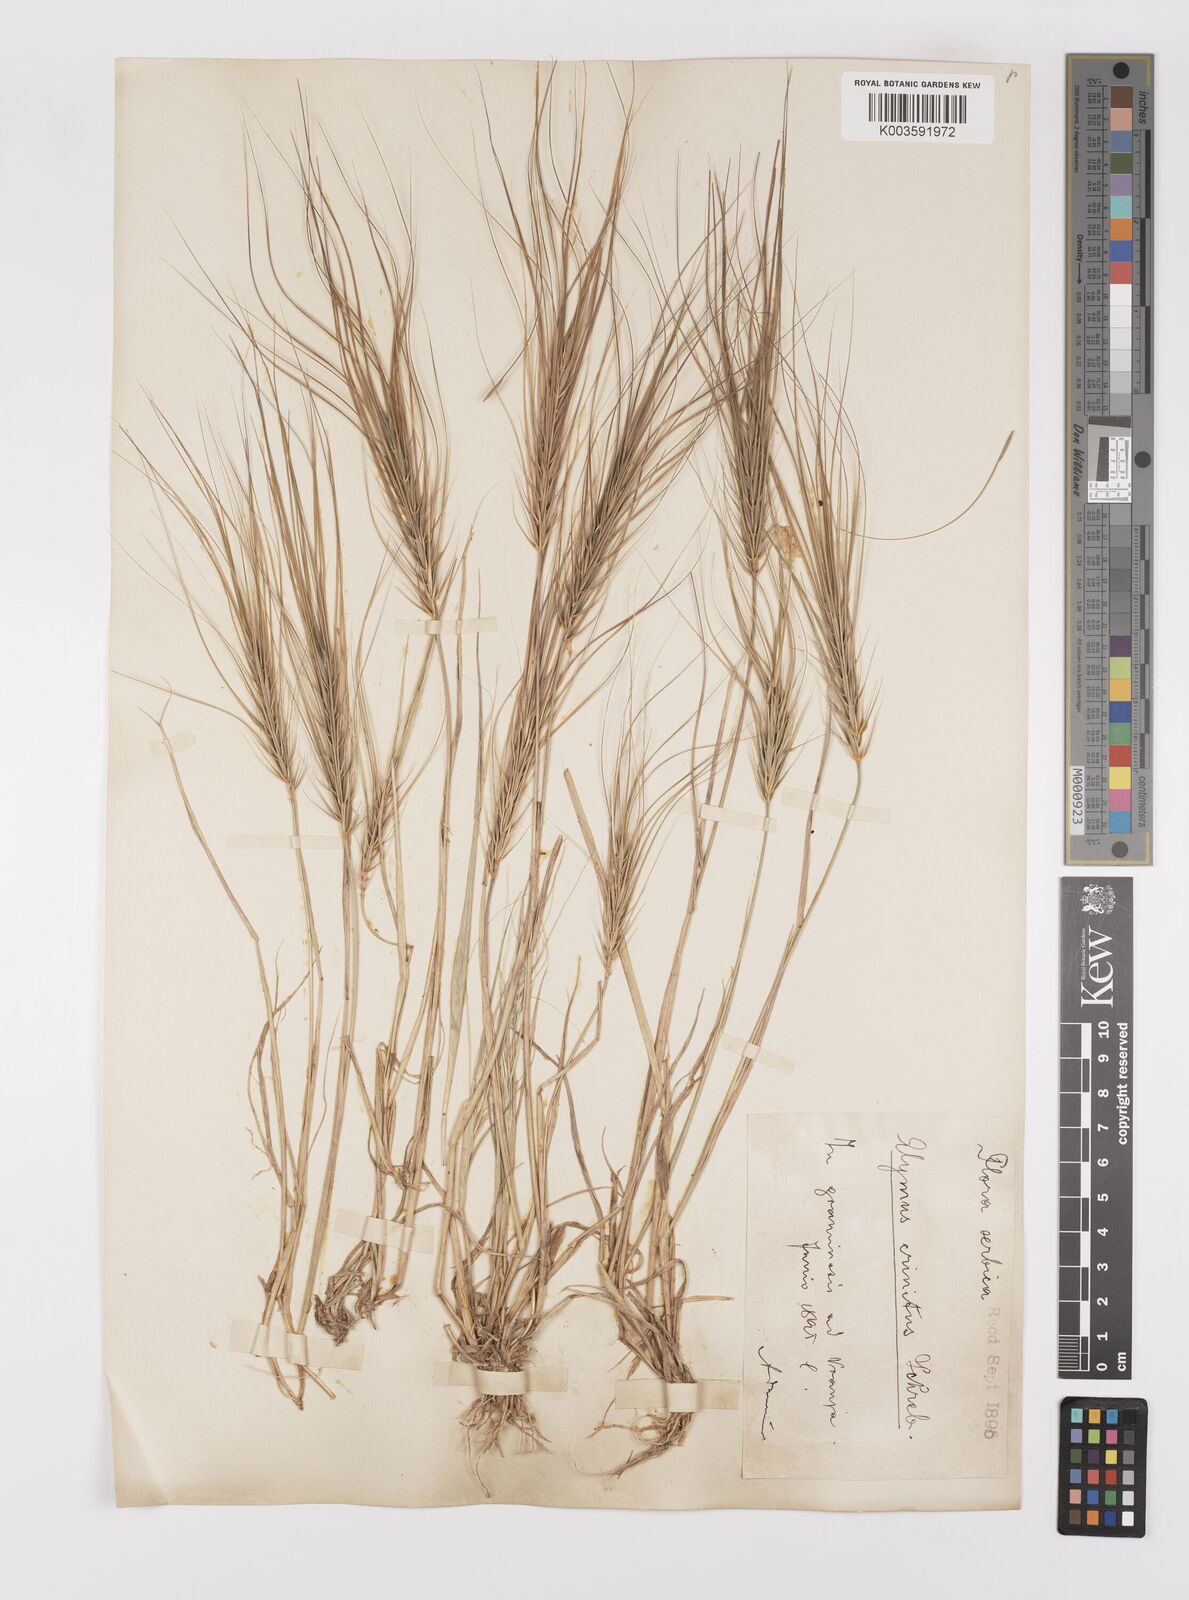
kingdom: Plantae
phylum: Tracheophyta
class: Liliopsida
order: Poales
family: Poaceae
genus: Taeniatherum
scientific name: Taeniatherum caput-medusae
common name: Medusahead
